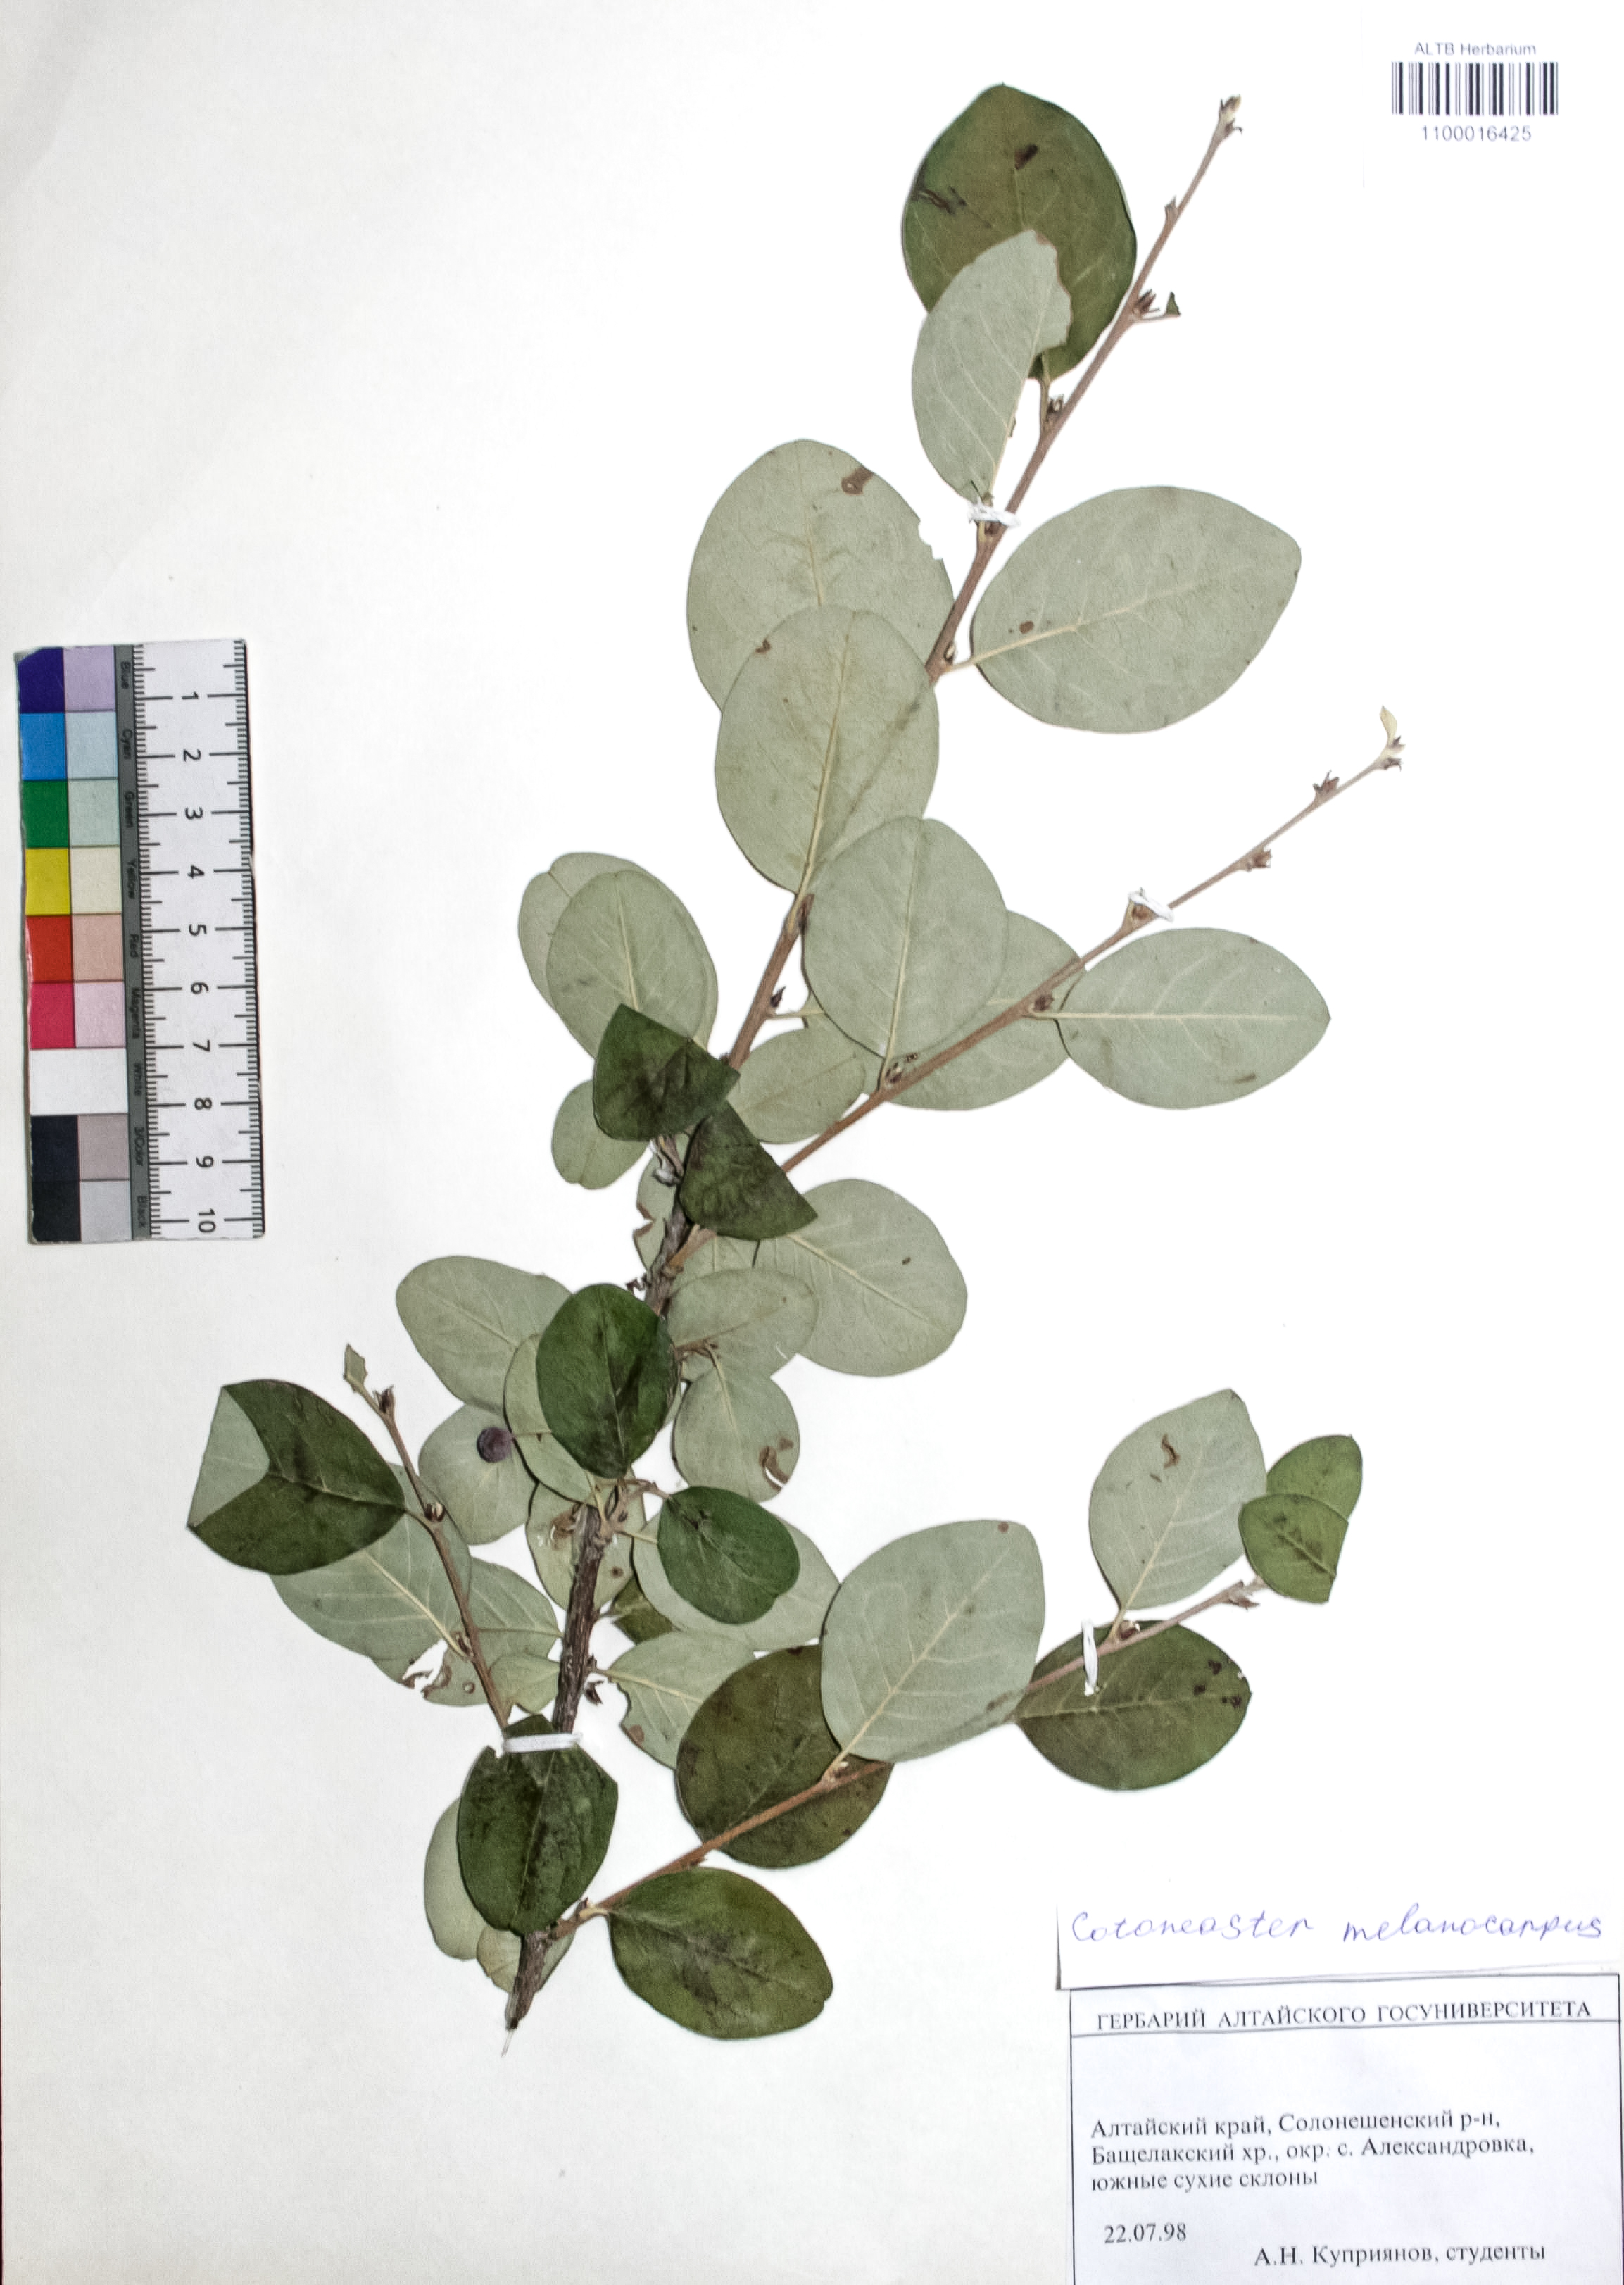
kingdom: Plantae
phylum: Tracheophyta
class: Magnoliopsida
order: Rosales
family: Rosaceae
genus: Cotoneaster
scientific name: Cotoneaster niger
